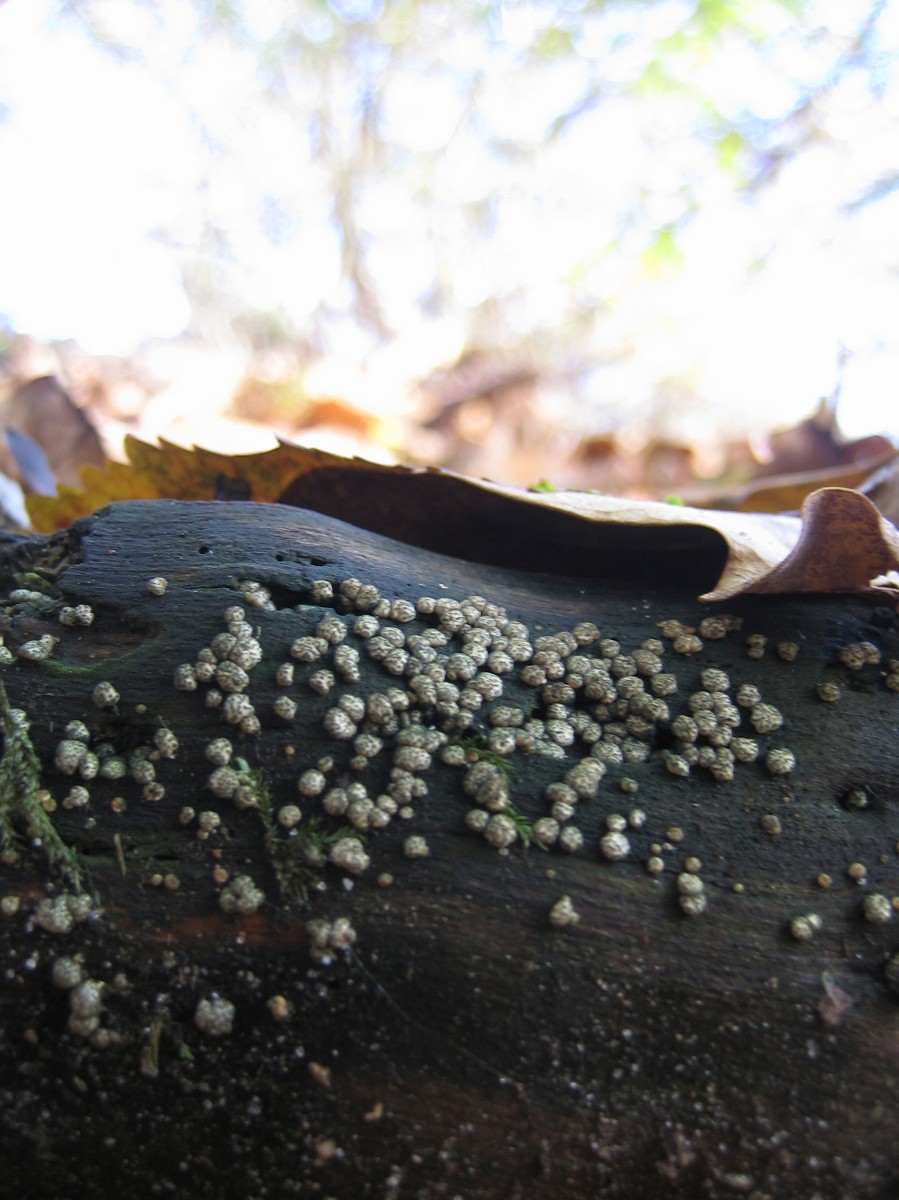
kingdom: Fungi
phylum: Ascomycota
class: Sordariomycetes
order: Hypocreales
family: Hypocreaceae
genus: Trichoderma
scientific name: Trichoderma
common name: kødkerne
